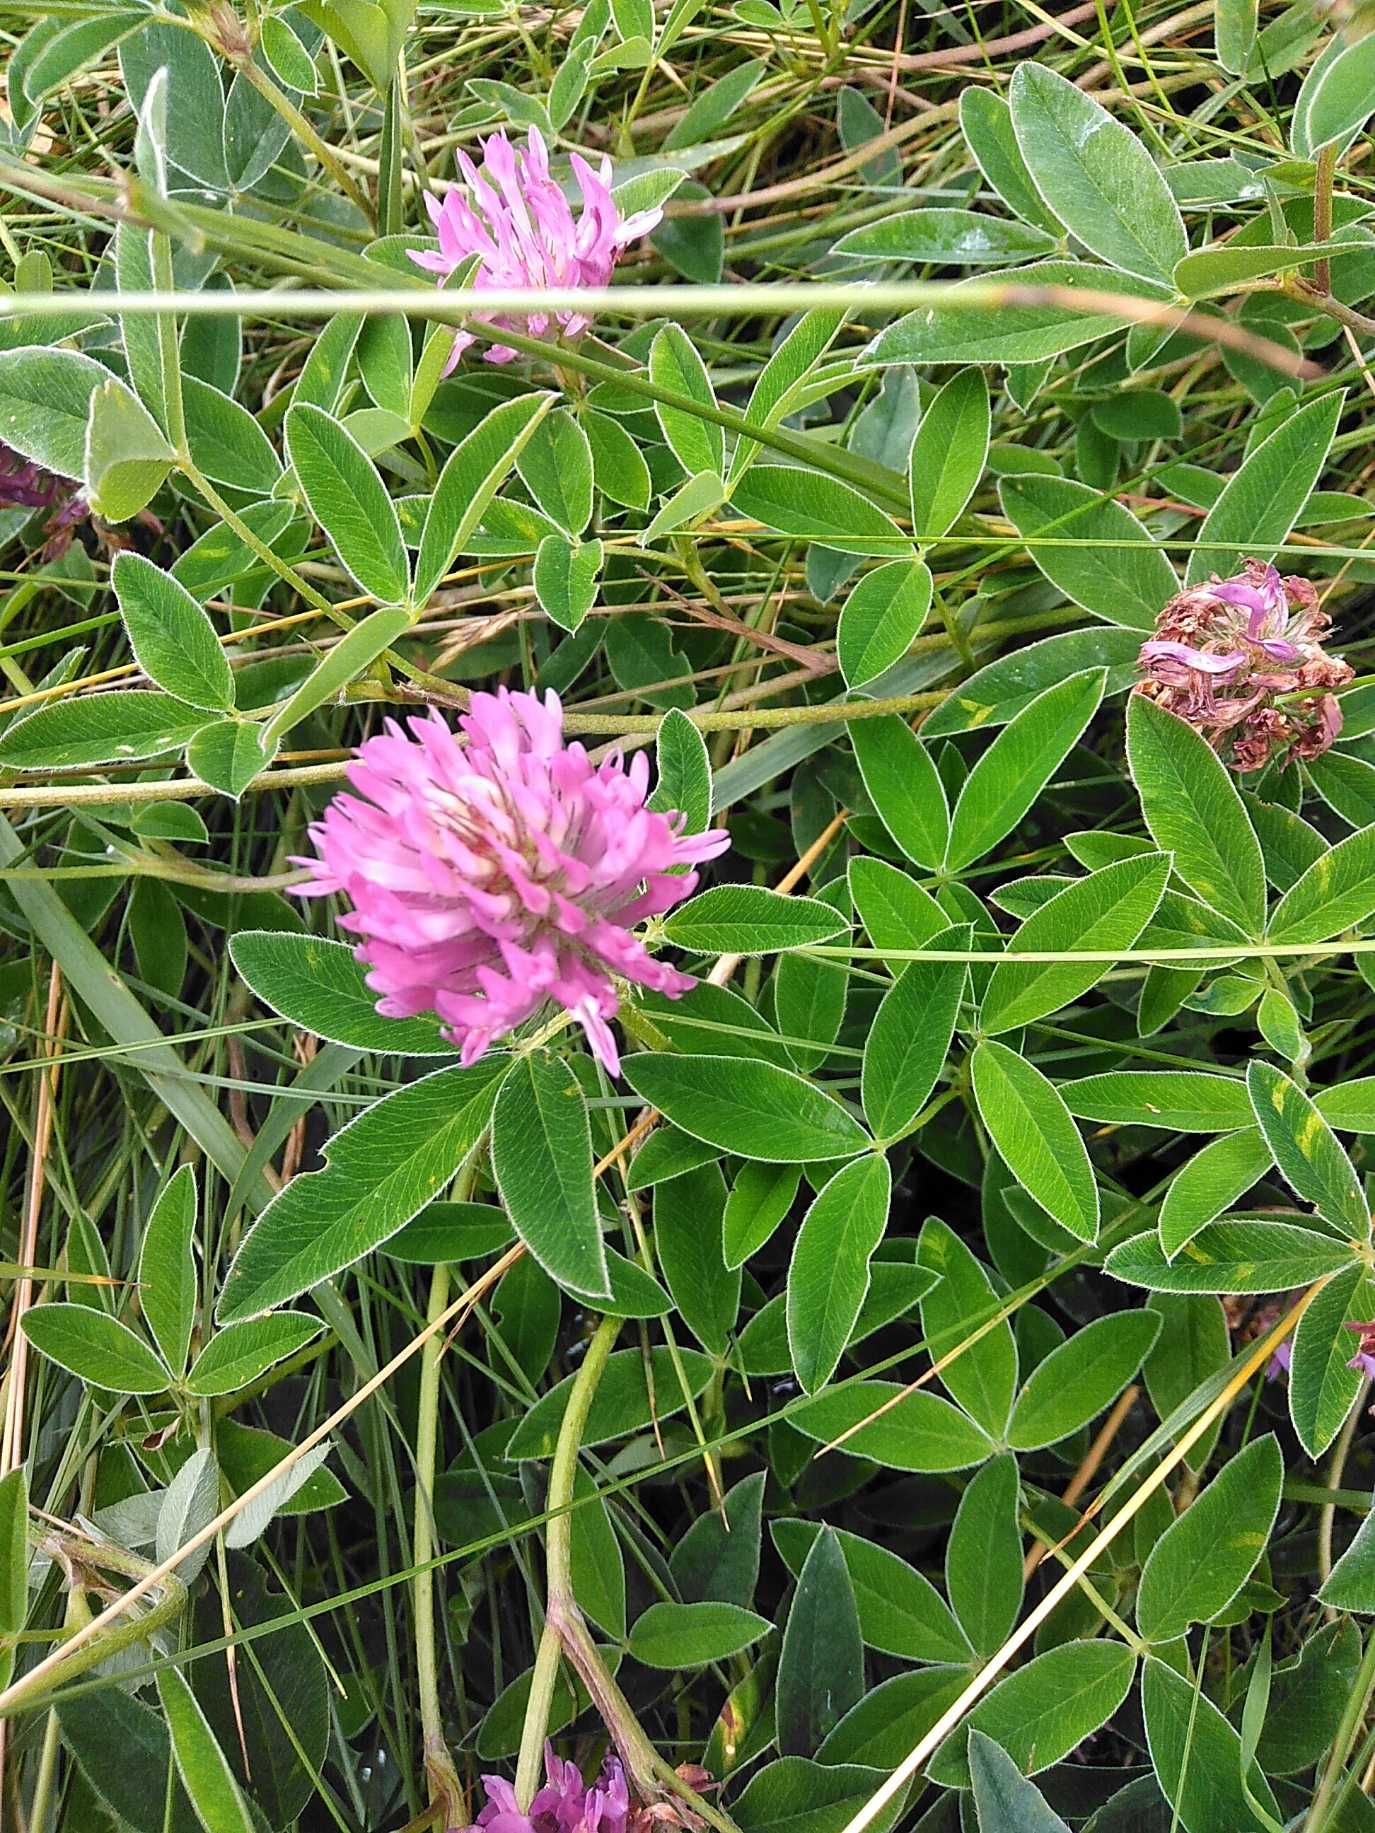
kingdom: Plantae
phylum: Tracheophyta
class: Magnoliopsida
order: Fabales
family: Fabaceae
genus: Trifolium
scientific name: Trifolium medium
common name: Bugtet kløver
